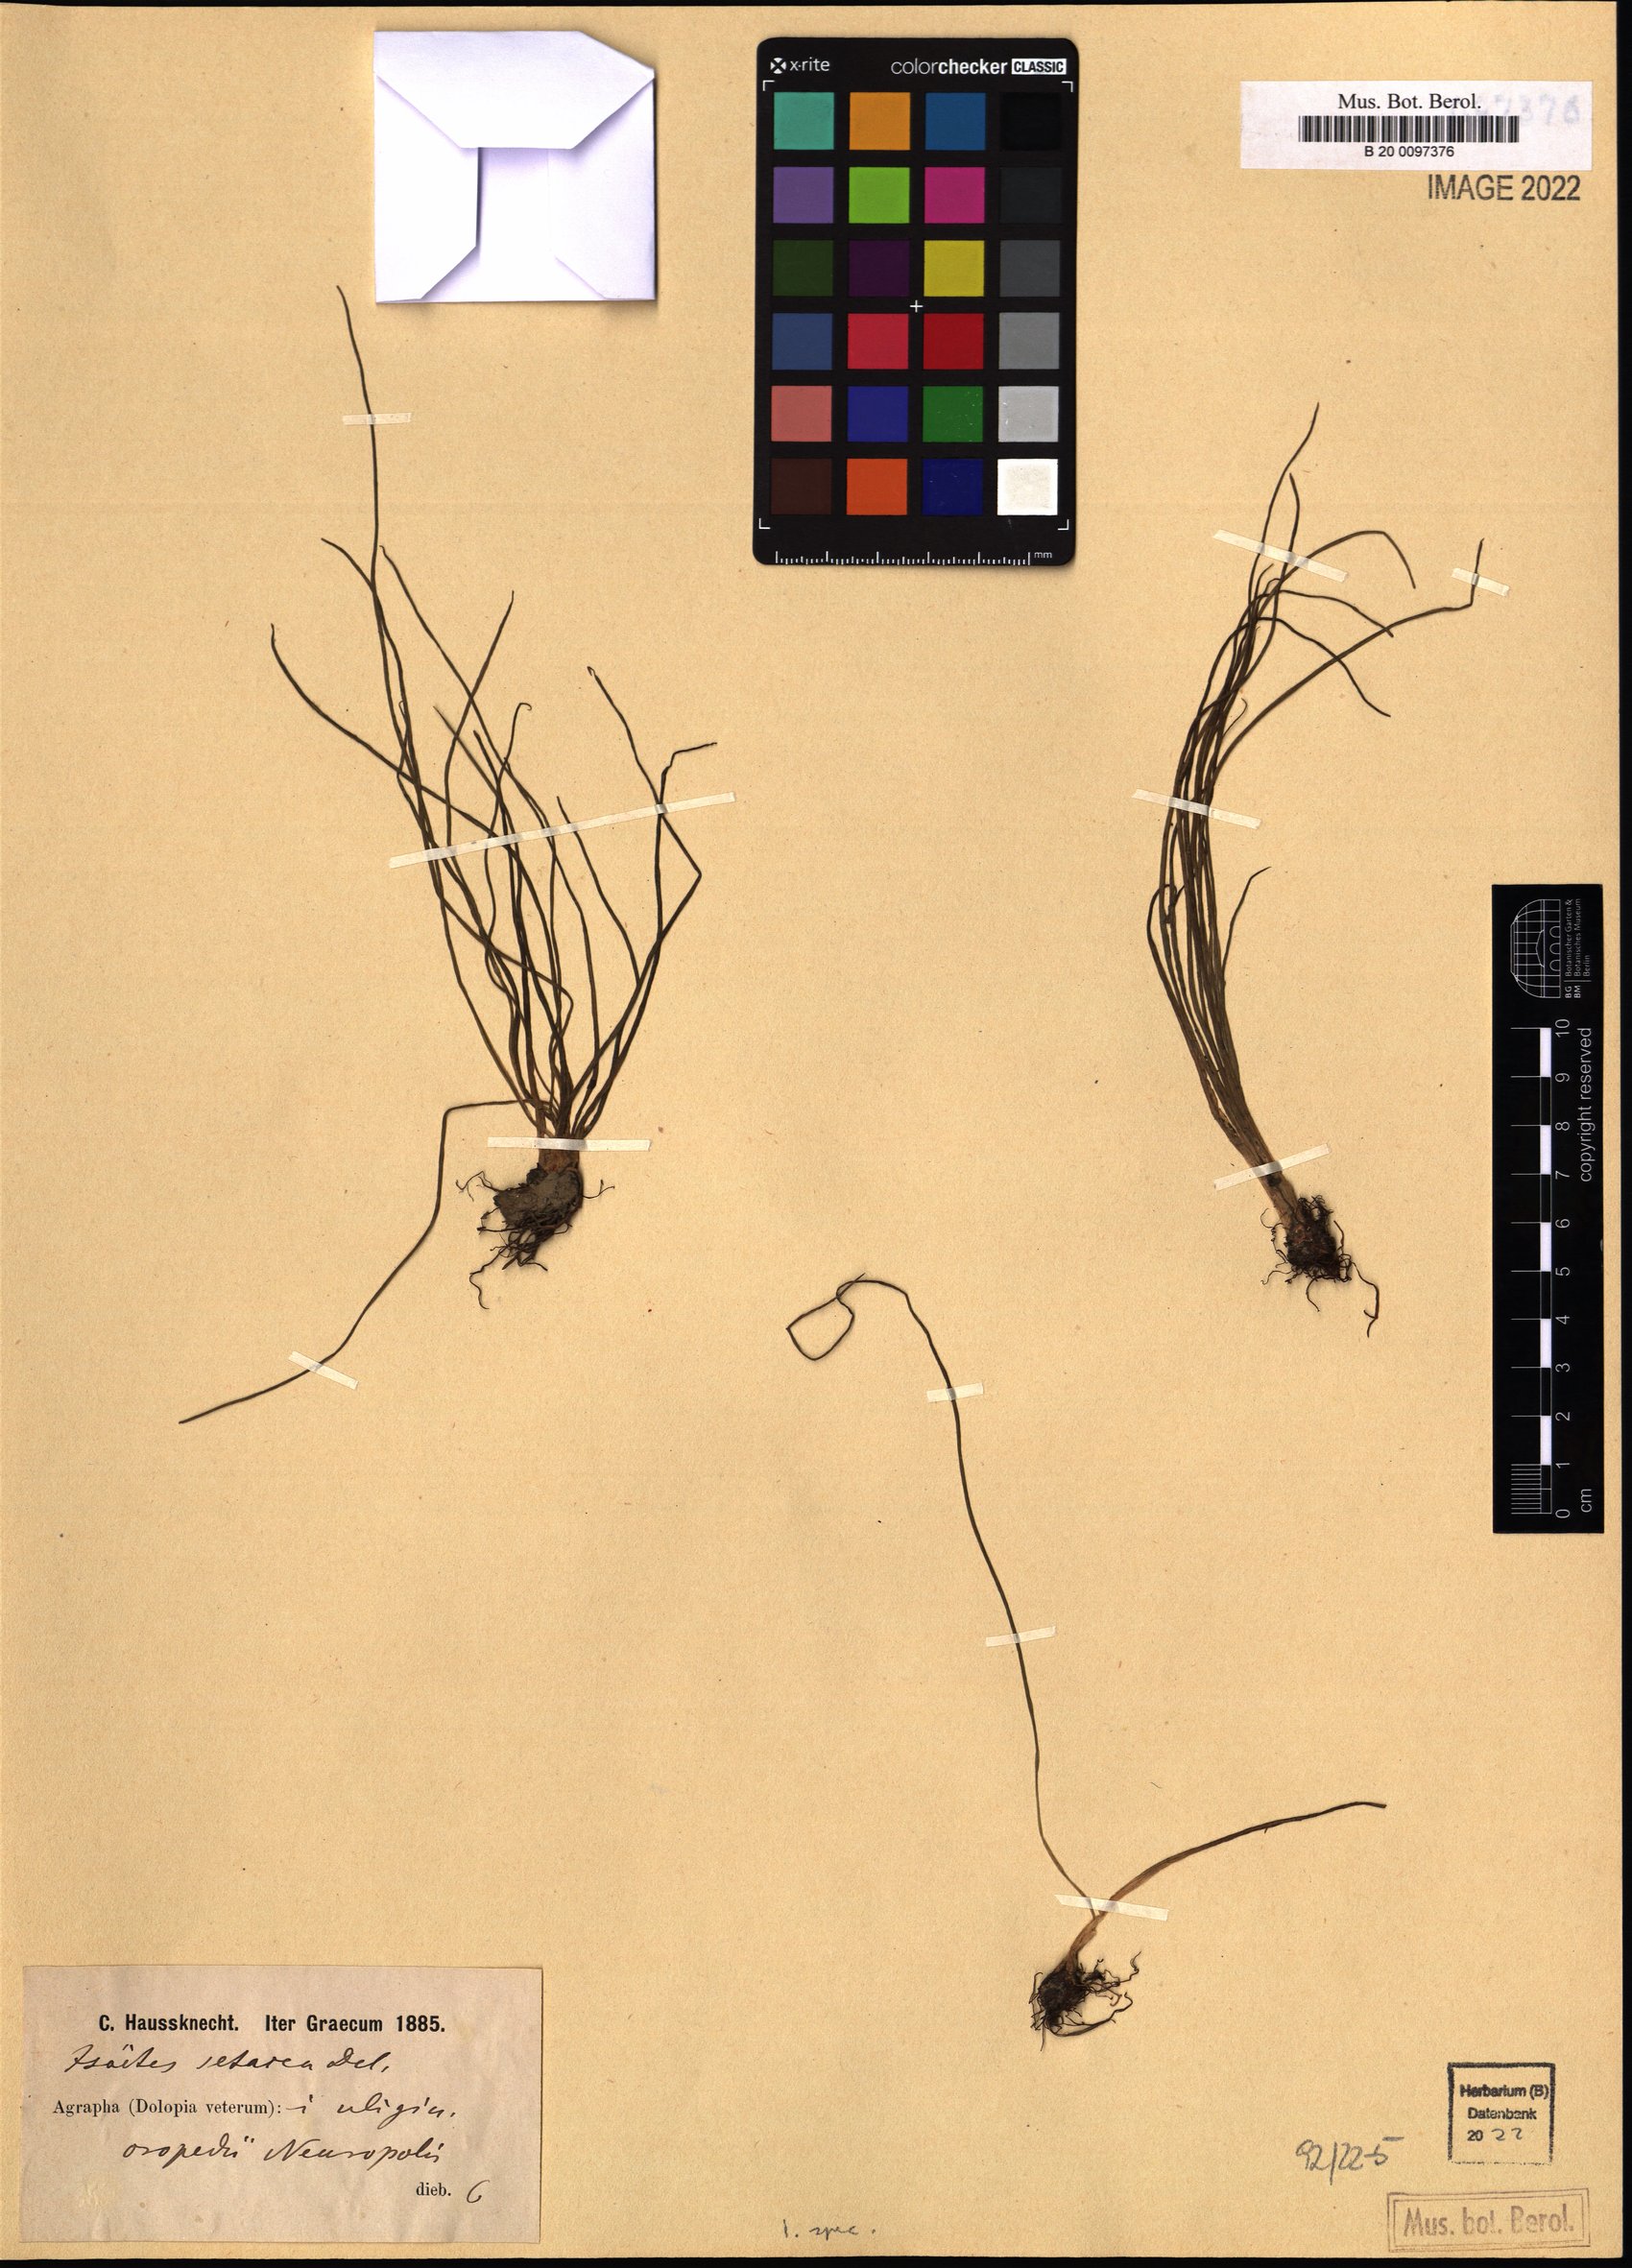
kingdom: Plantae
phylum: Tracheophyta
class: Lycopodiopsida
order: Isoetales
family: Isoetaceae
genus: Isoetes
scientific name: Isoetes
